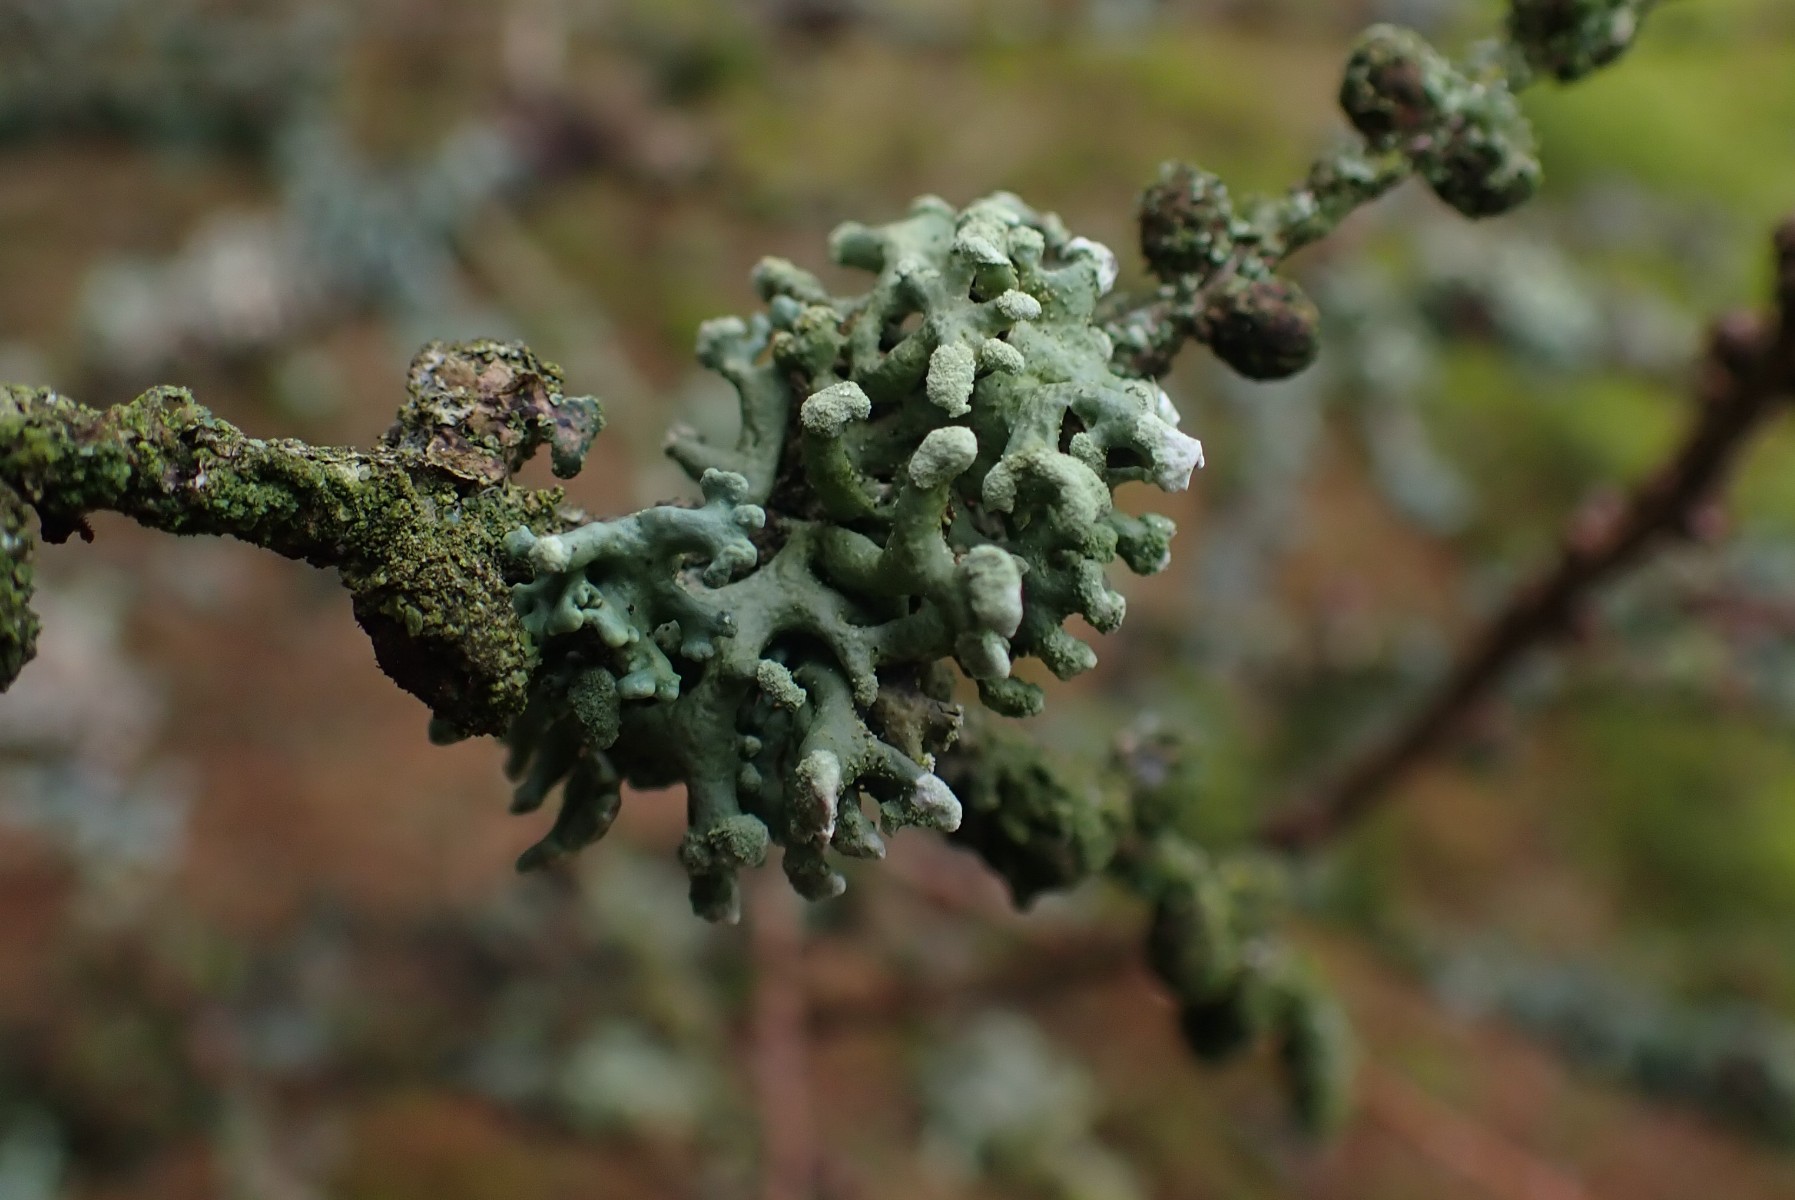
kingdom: Fungi
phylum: Ascomycota
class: Lecanoromycetes
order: Lecanorales
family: Parmeliaceae
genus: Hypogymnia
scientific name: Hypogymnia tubulosa
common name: finger-kvistlav
